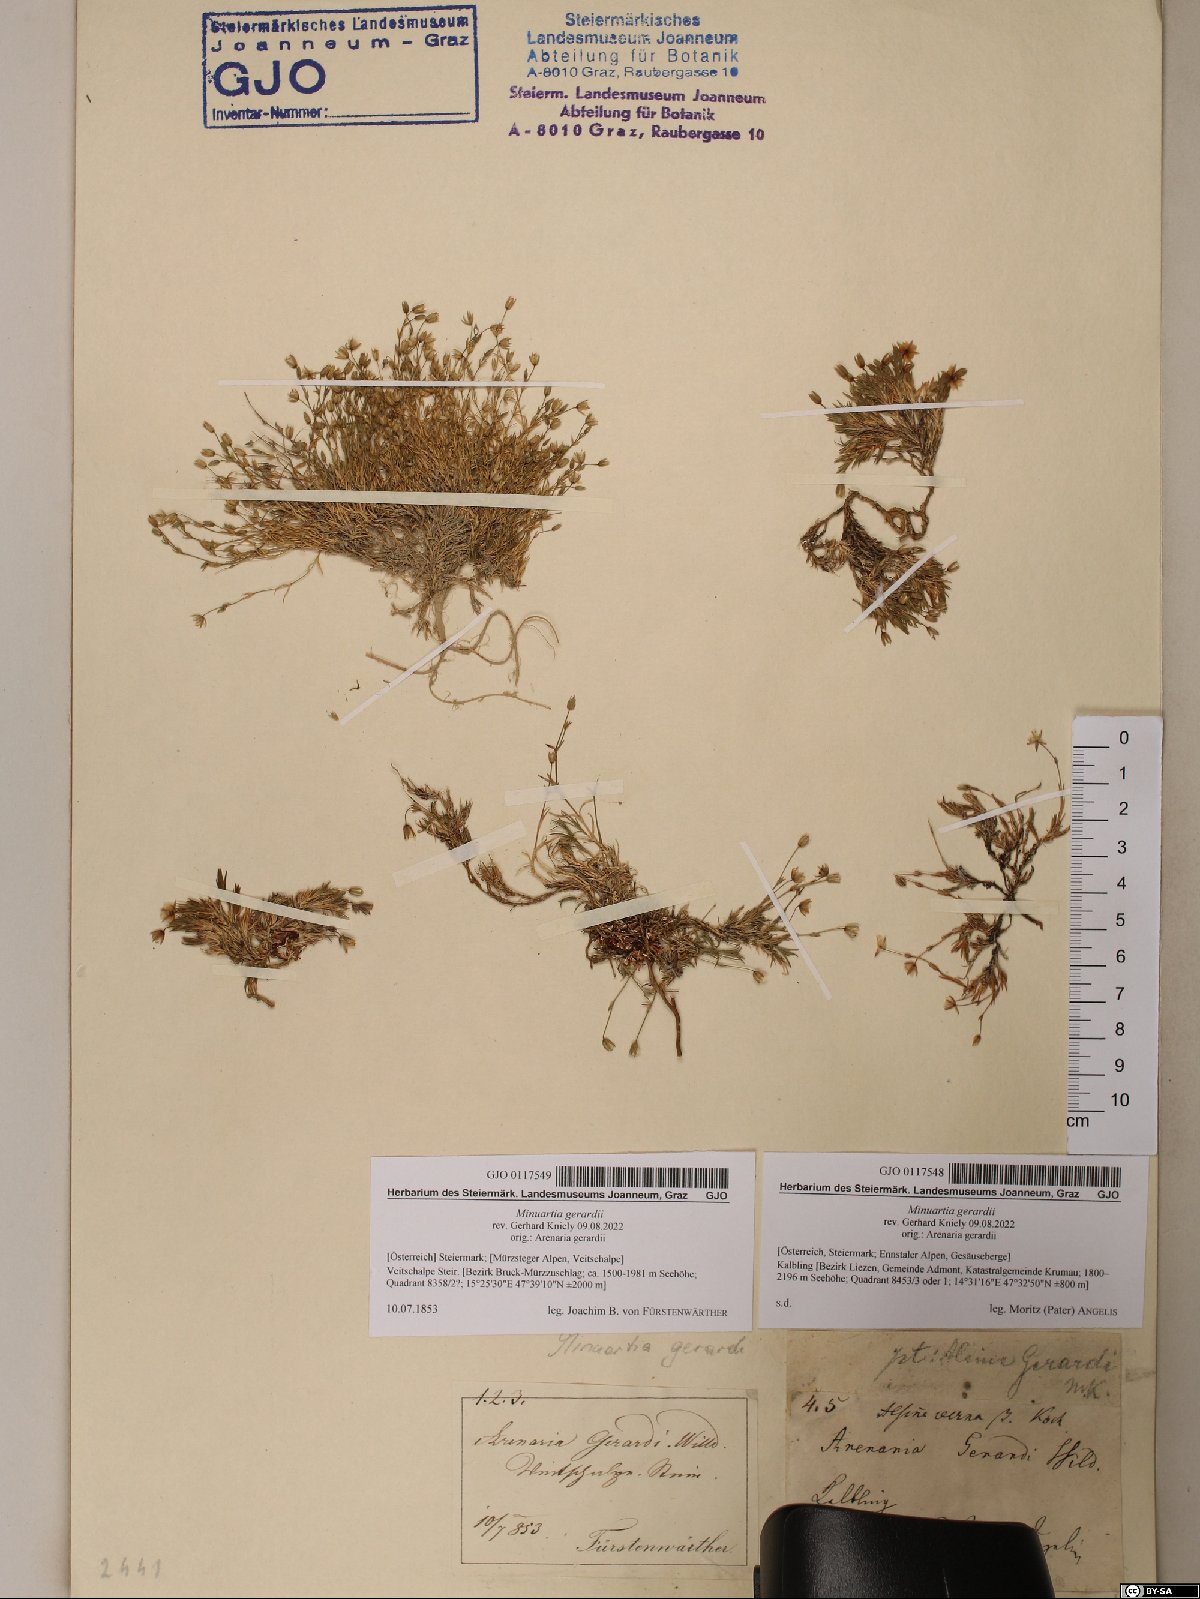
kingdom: Plantae
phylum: Tracheophyta
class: Magnoliopsida
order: Caryophyllales
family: Caryophyllaceae
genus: Sabulina
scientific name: Sabulina verna
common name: Spring sandwort
